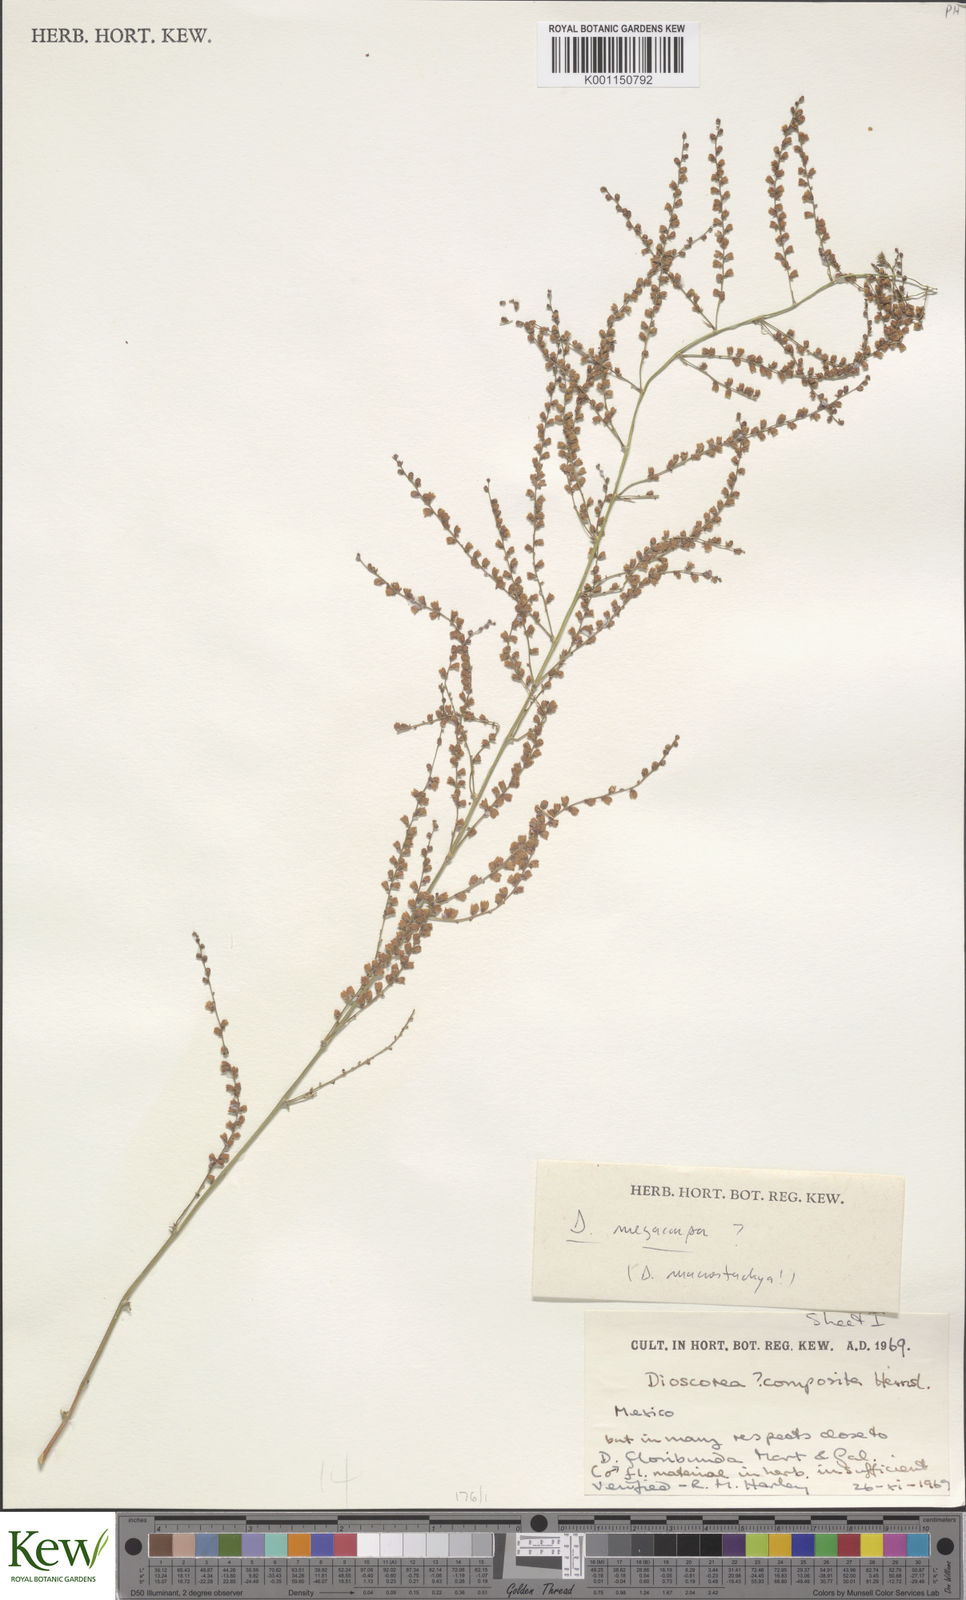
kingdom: Plantae
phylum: Tracheophyta
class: Liliopsida
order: Dioscoreales
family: Dioscoreaceae
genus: Dioscorea
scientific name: Dioscorea convolvulacea
